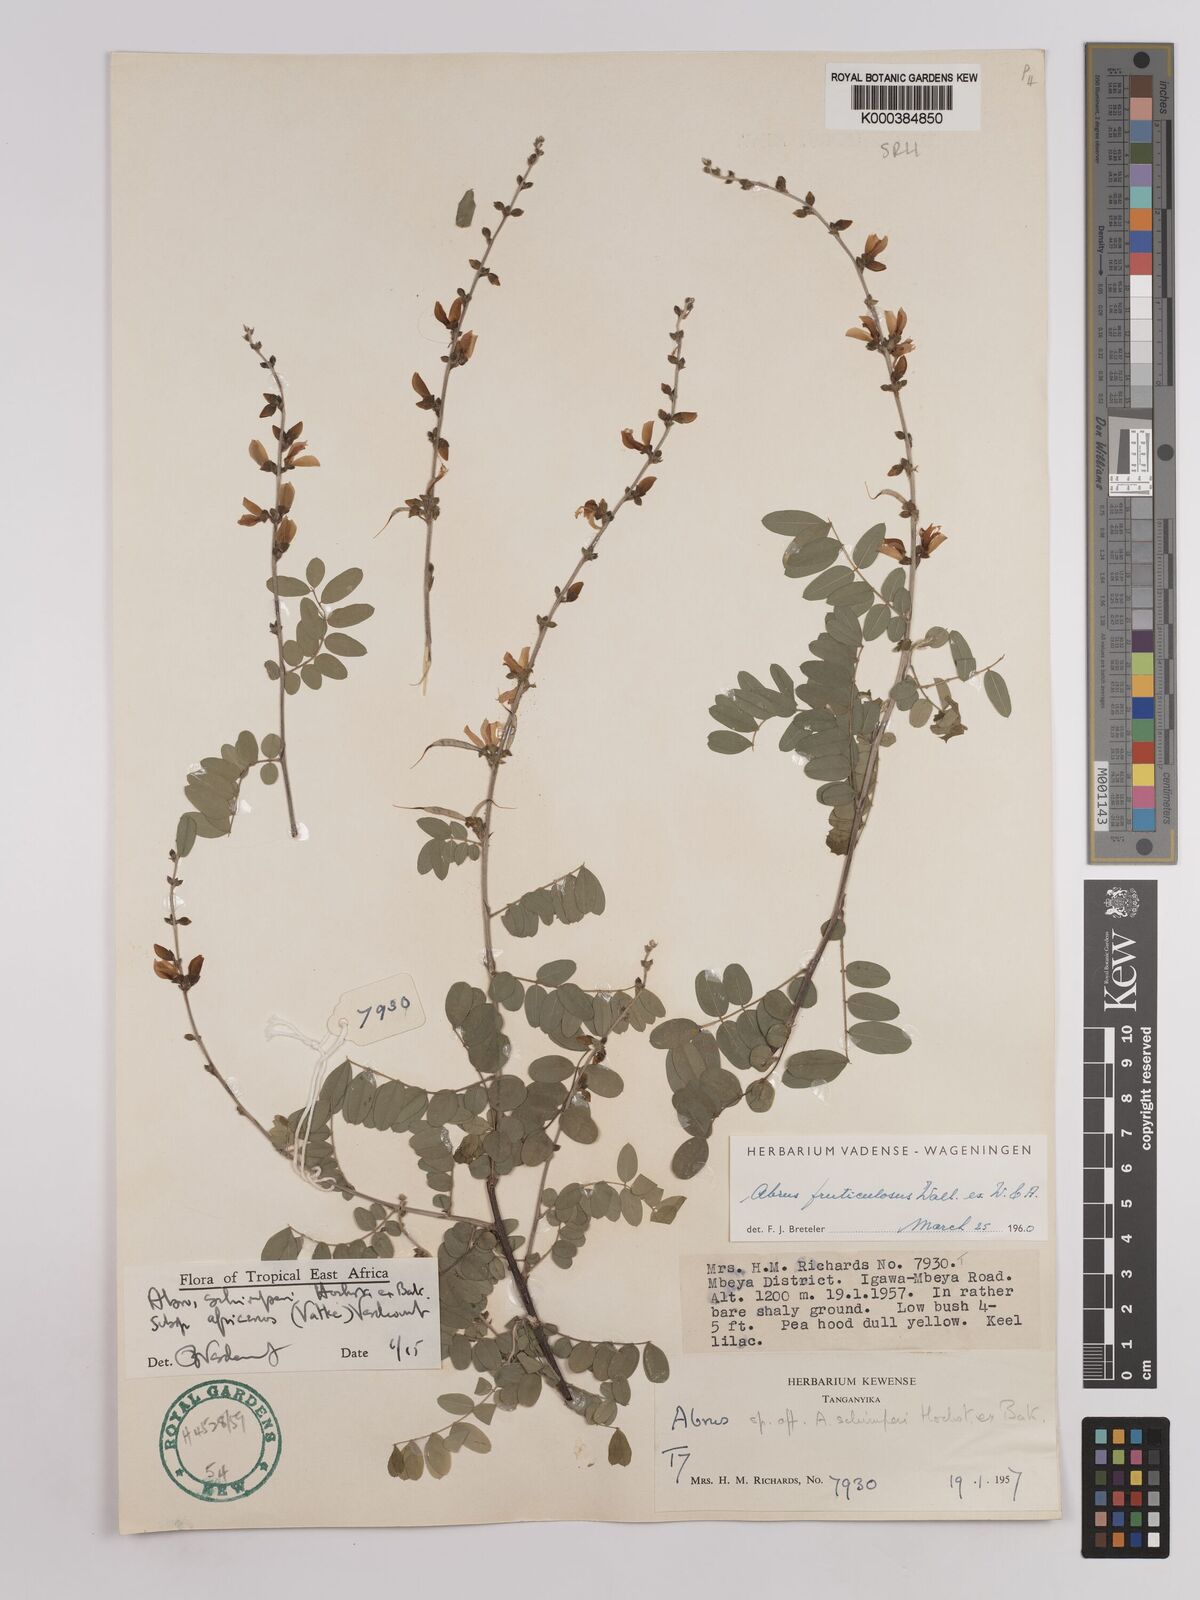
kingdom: Plantae
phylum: Tracheophyta
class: Magnoliopsida
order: Fabales
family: Fabaceae
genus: Abrus
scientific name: Abrus fruticulosus
